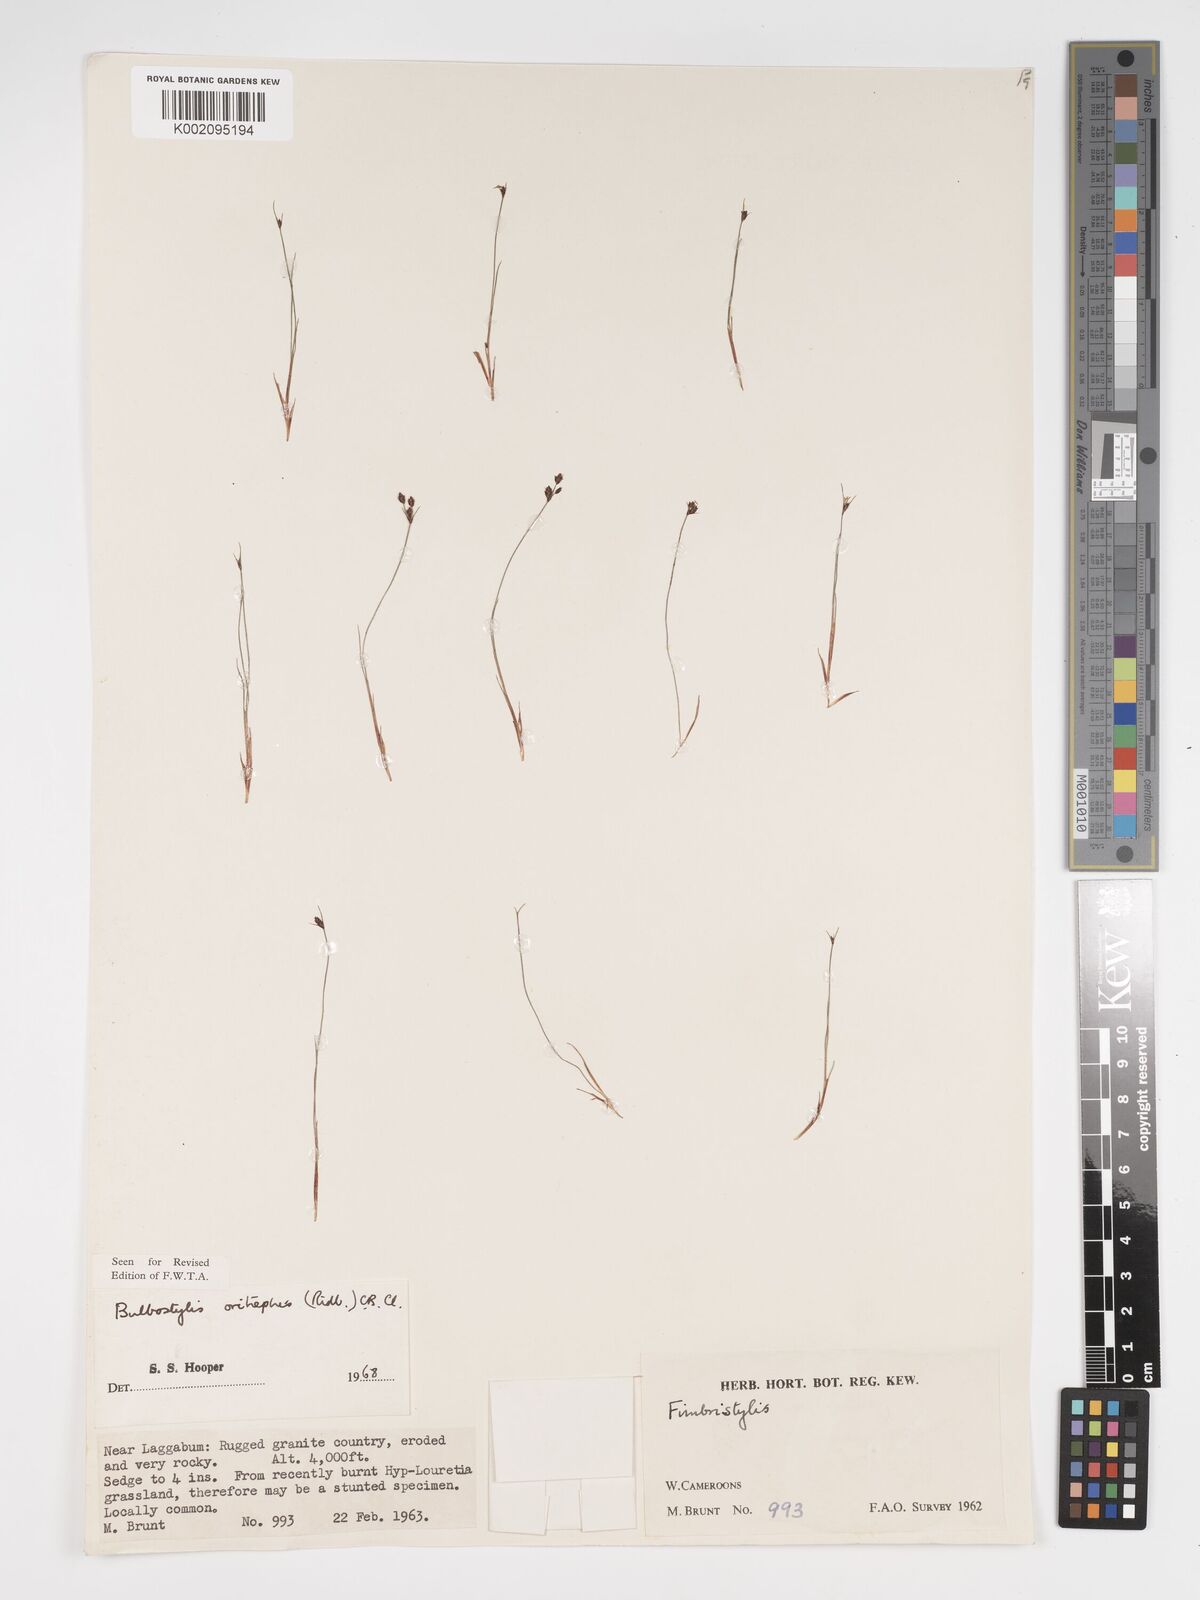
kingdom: Plantae
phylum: Tracheophyta
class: Liliopsida
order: Poales
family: Cyperaceae
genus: Bulbostylis
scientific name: Bulbostylis oritrephes
